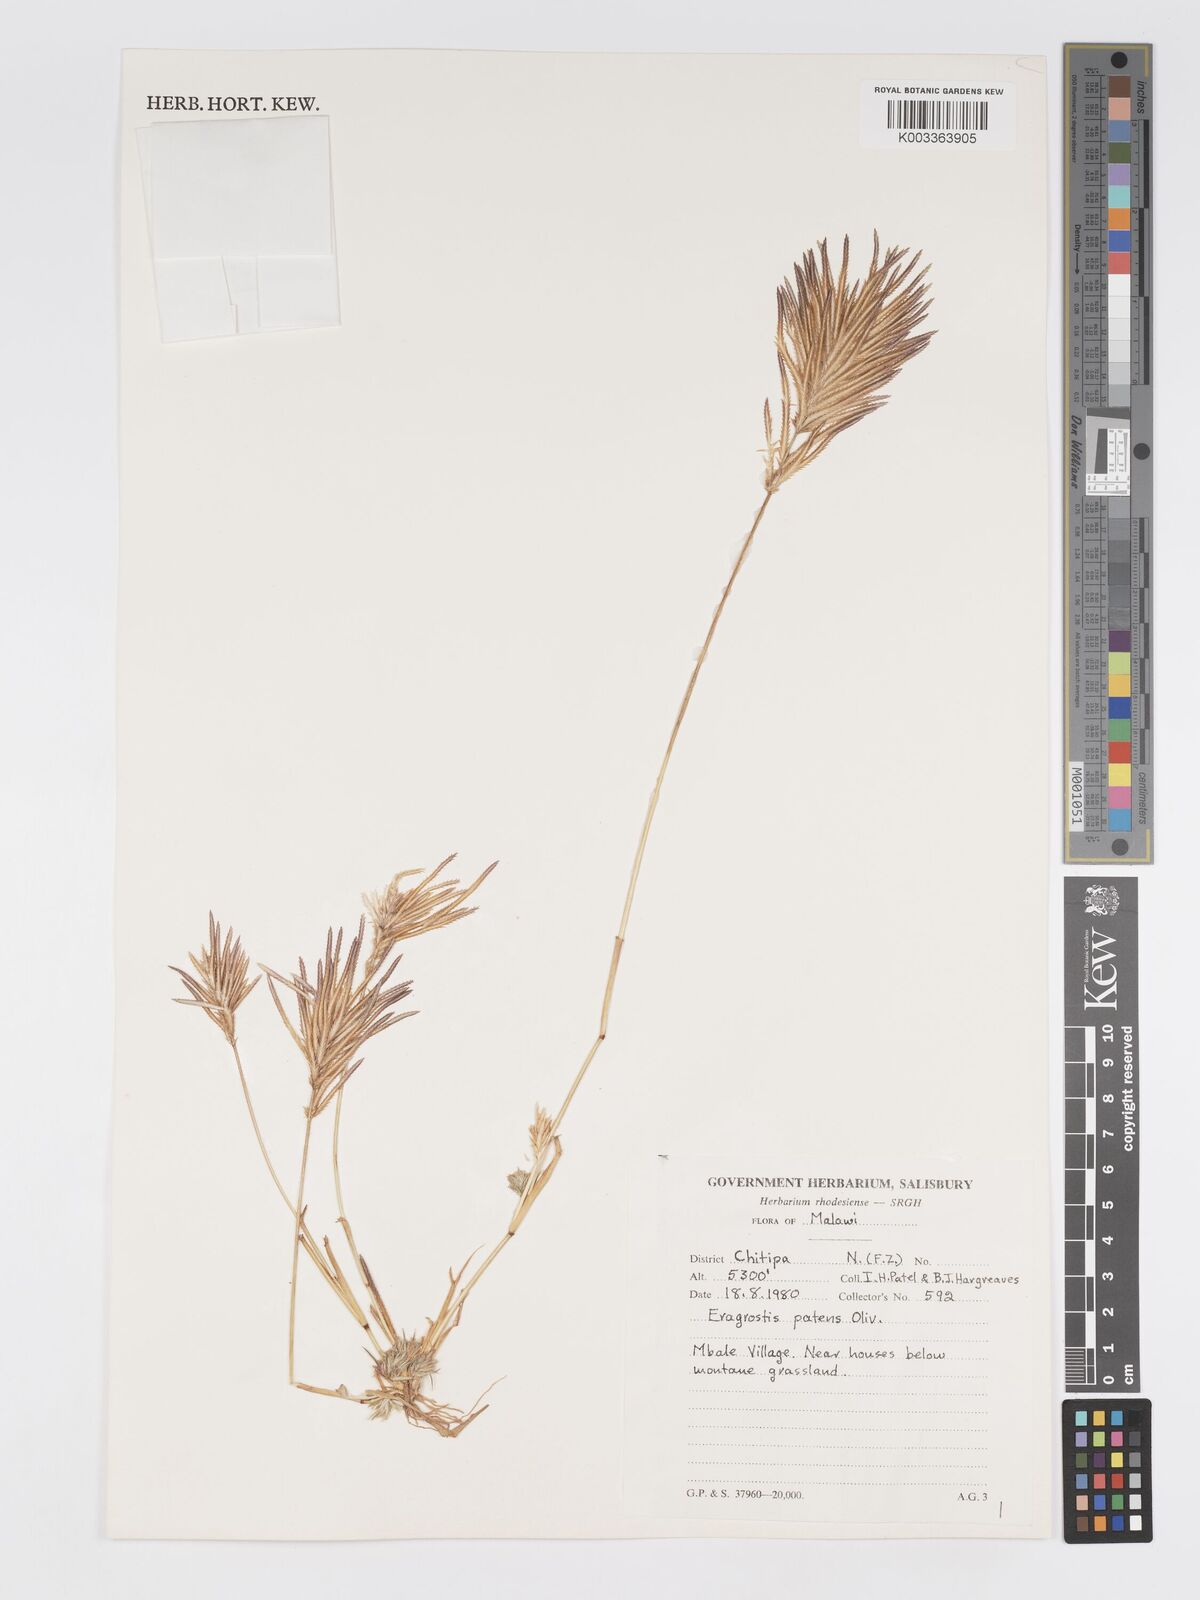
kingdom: Plantae
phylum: Tracheophyta
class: Liliopsida
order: Poales
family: Poaceae
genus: Eragrostis
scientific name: Eragrostis patens
